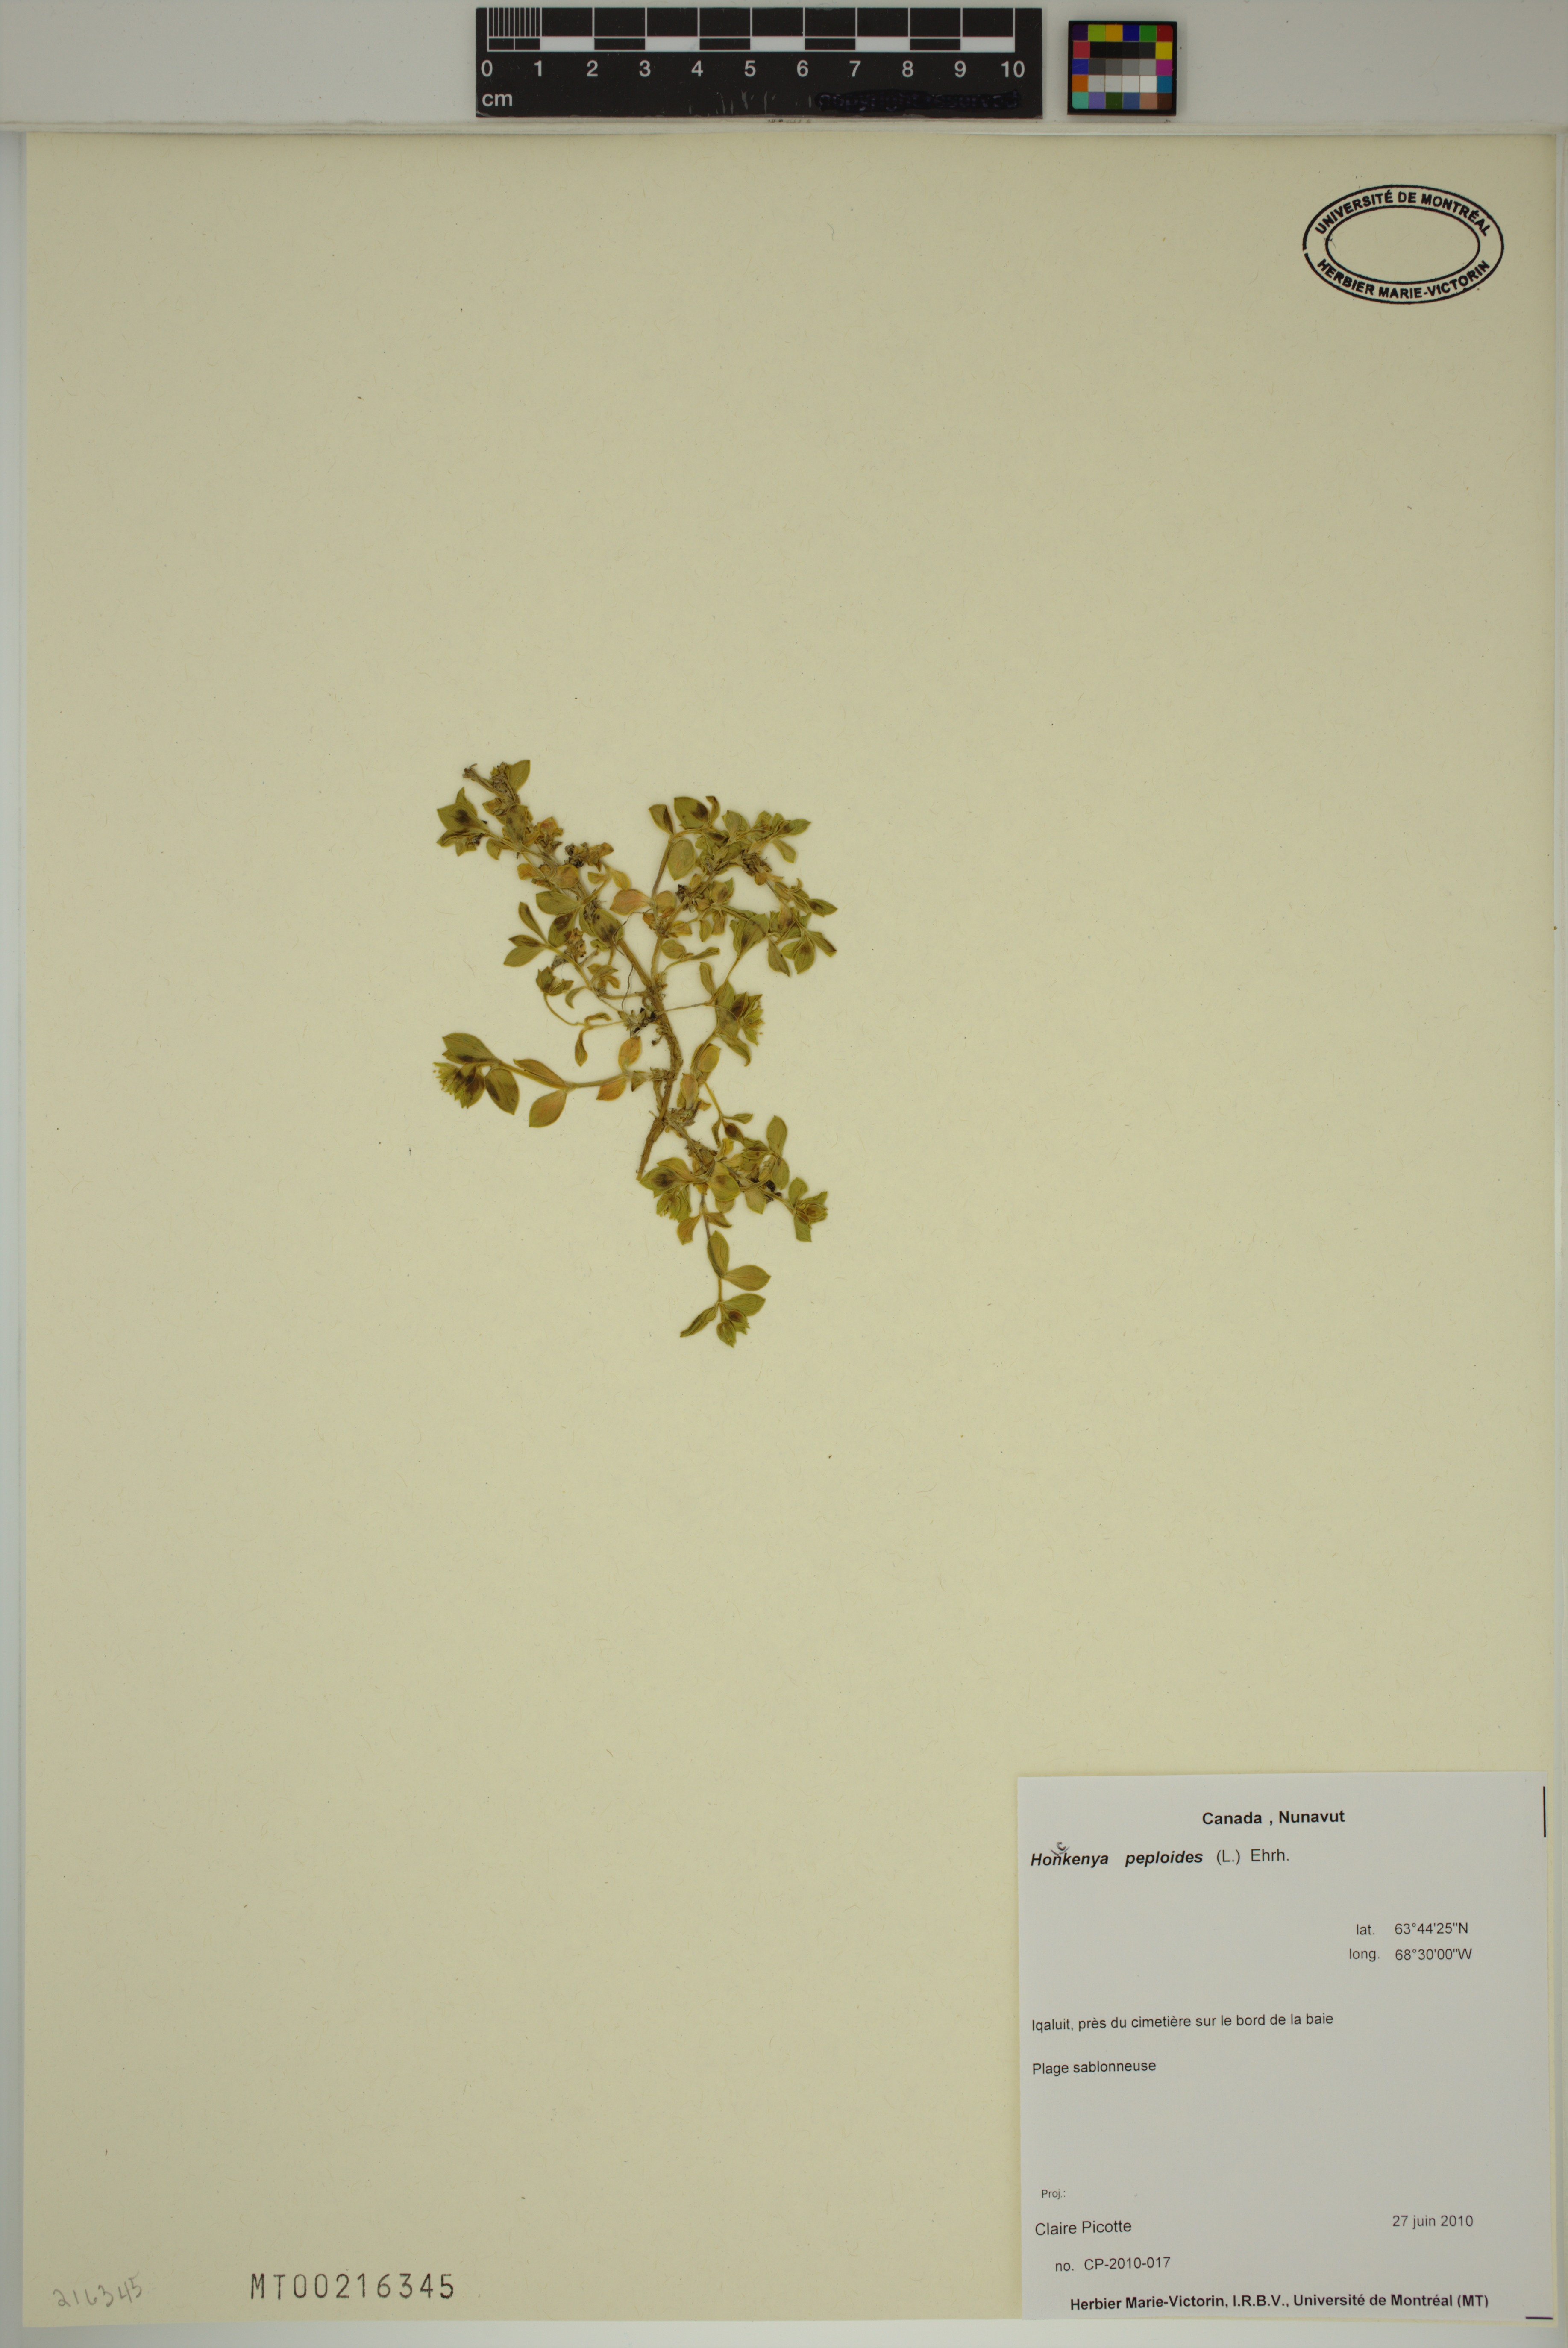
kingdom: Plantae
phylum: Tracheophyta
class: Magnoliopsida
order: Caryophyllales
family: Caryophyllaceae
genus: Honckenya
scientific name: Honckenya peploides
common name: Sea sandwort
